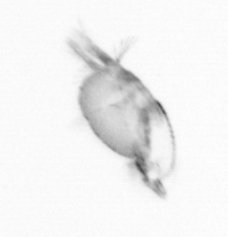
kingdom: Animalia
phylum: Arthropoda
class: Copepoda
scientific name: Copepoda
